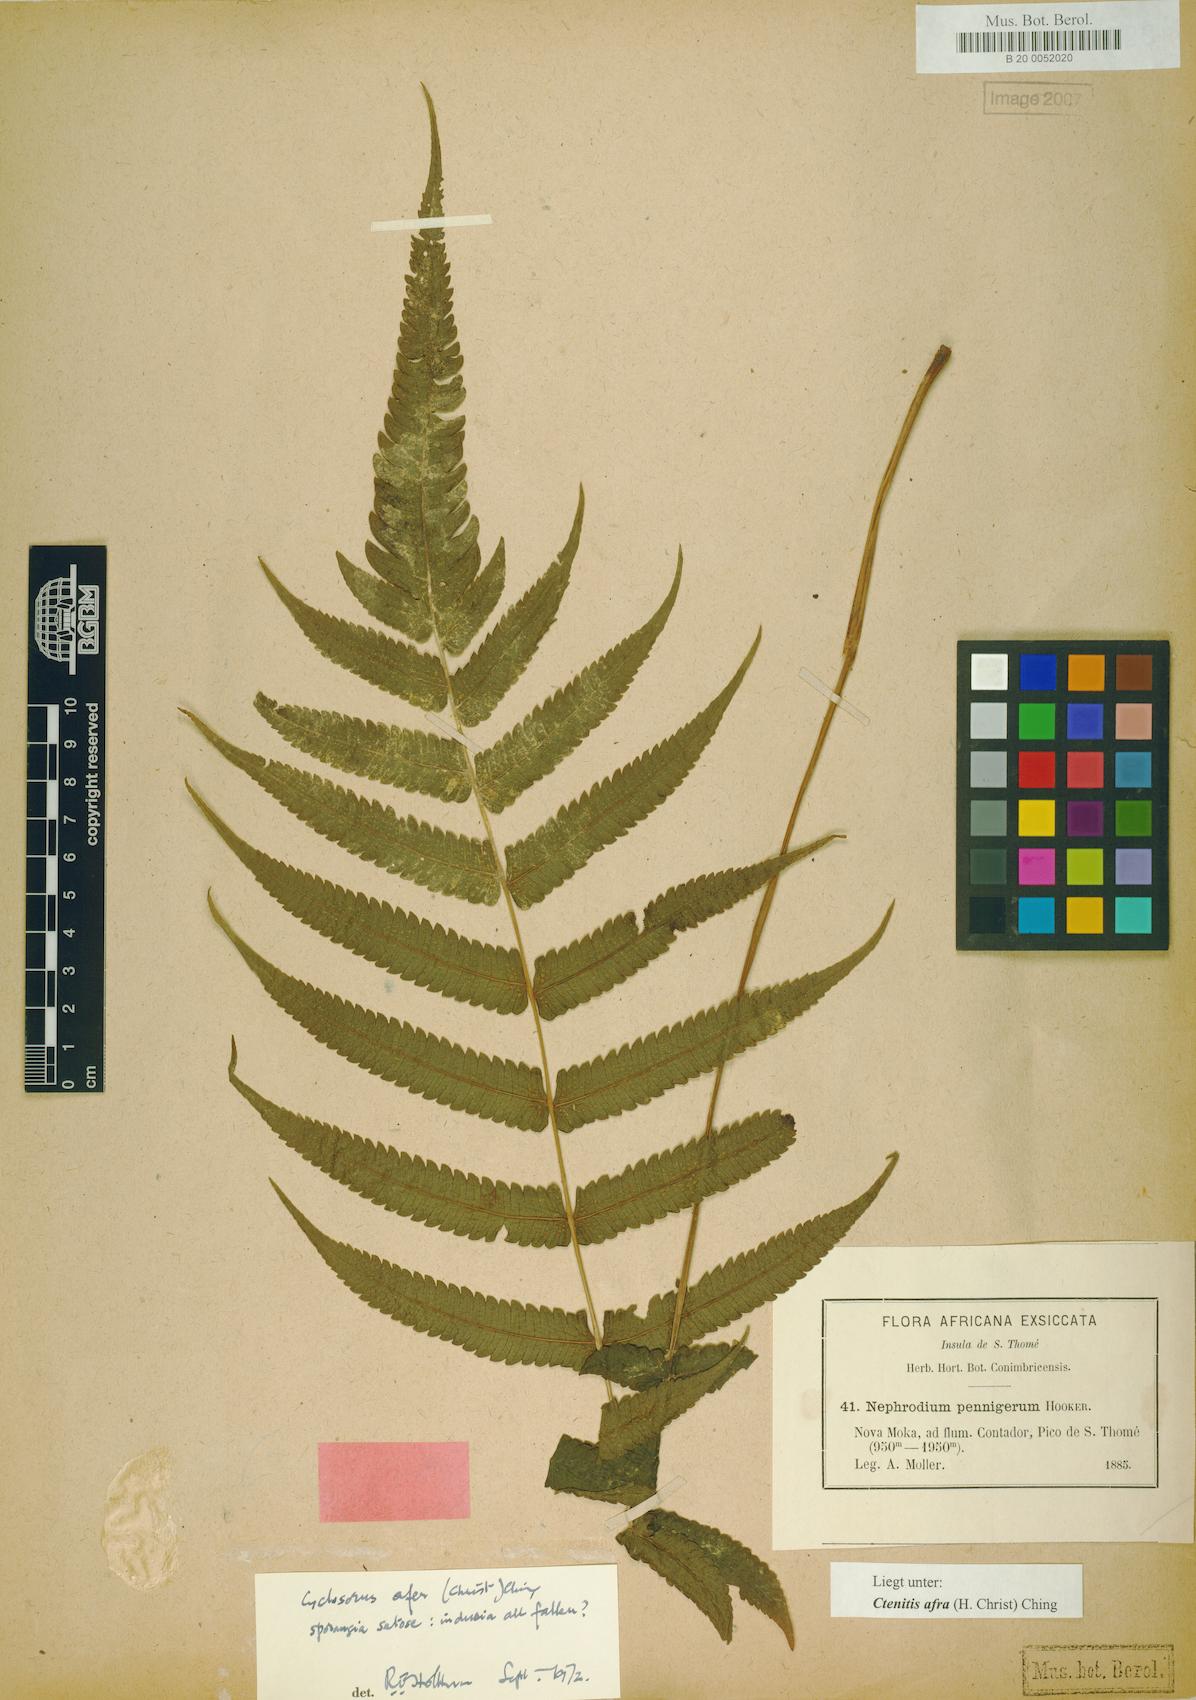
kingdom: Plantae
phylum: Tracheophyta
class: Polypodiopsida
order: Polypodiales
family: Thelypteridaceae
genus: Abacopteris
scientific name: Abacopteris afra
